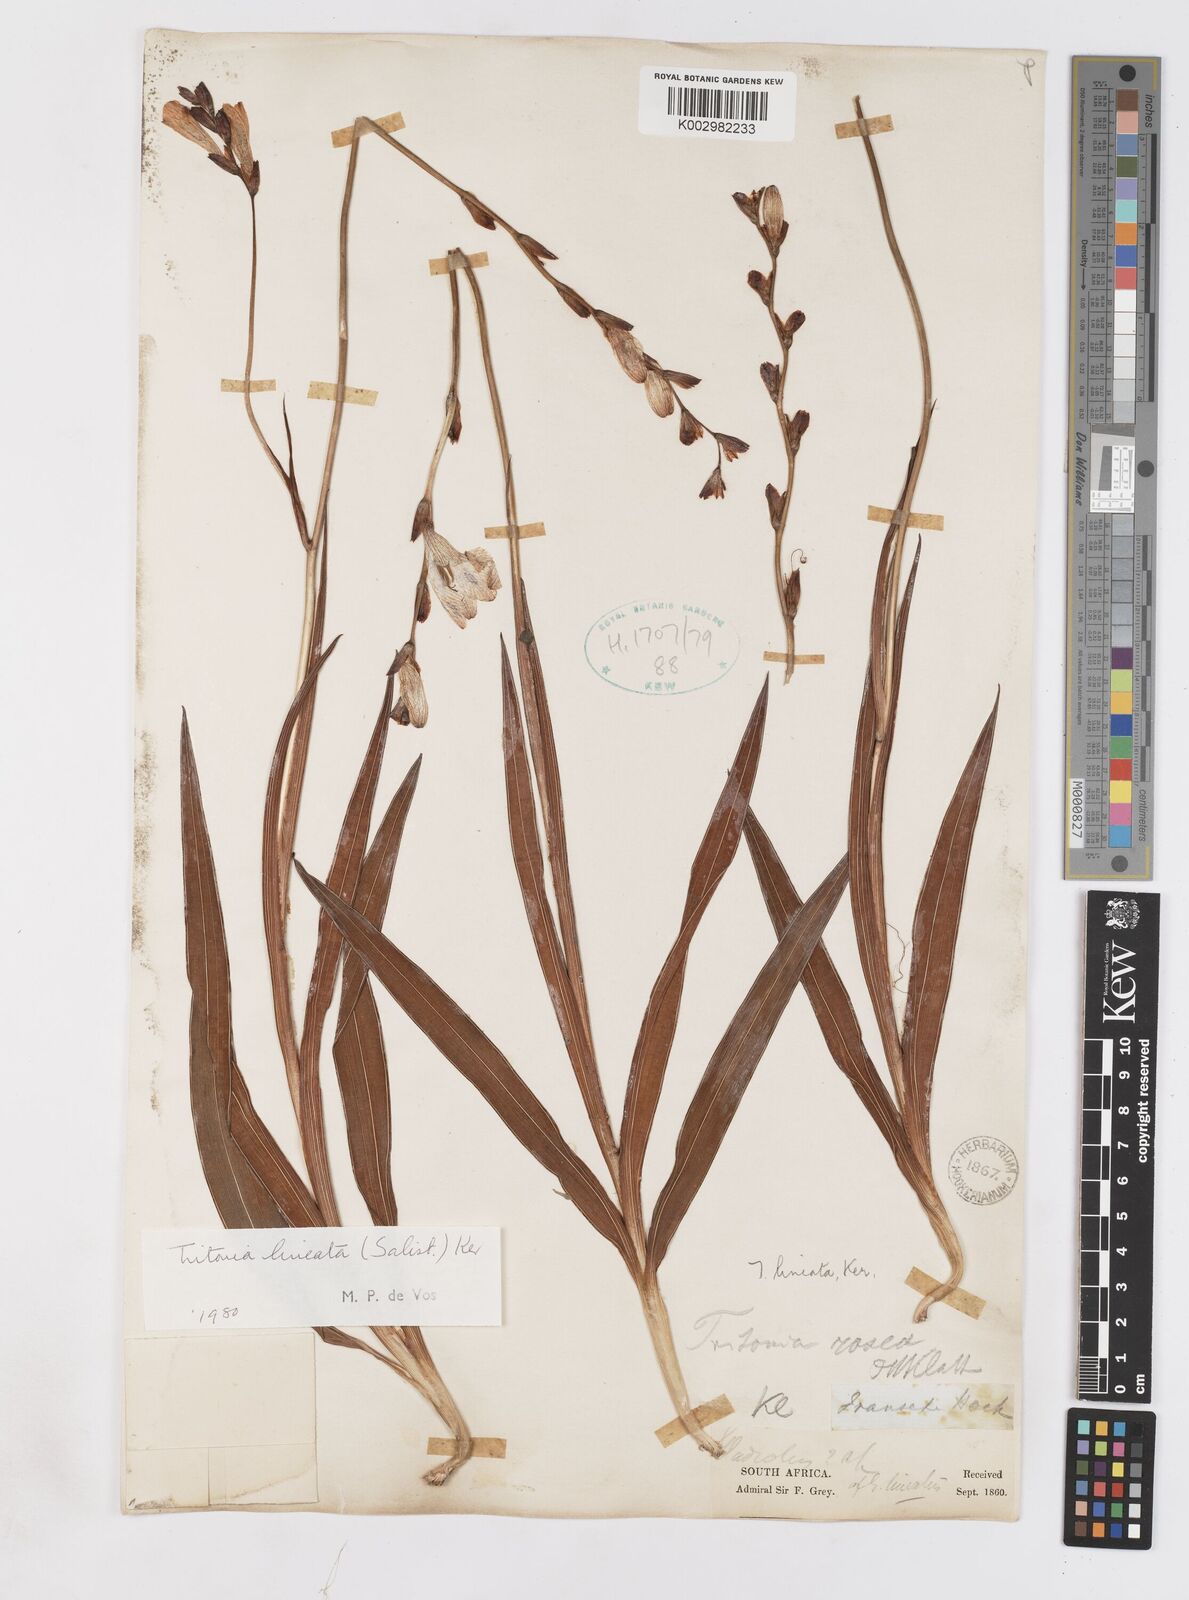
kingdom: Plantae
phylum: Tracheophyta
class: Liliopsida
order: Asparagales
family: Iridaceae
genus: Tritonia
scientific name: Tritonia gladiolaris
